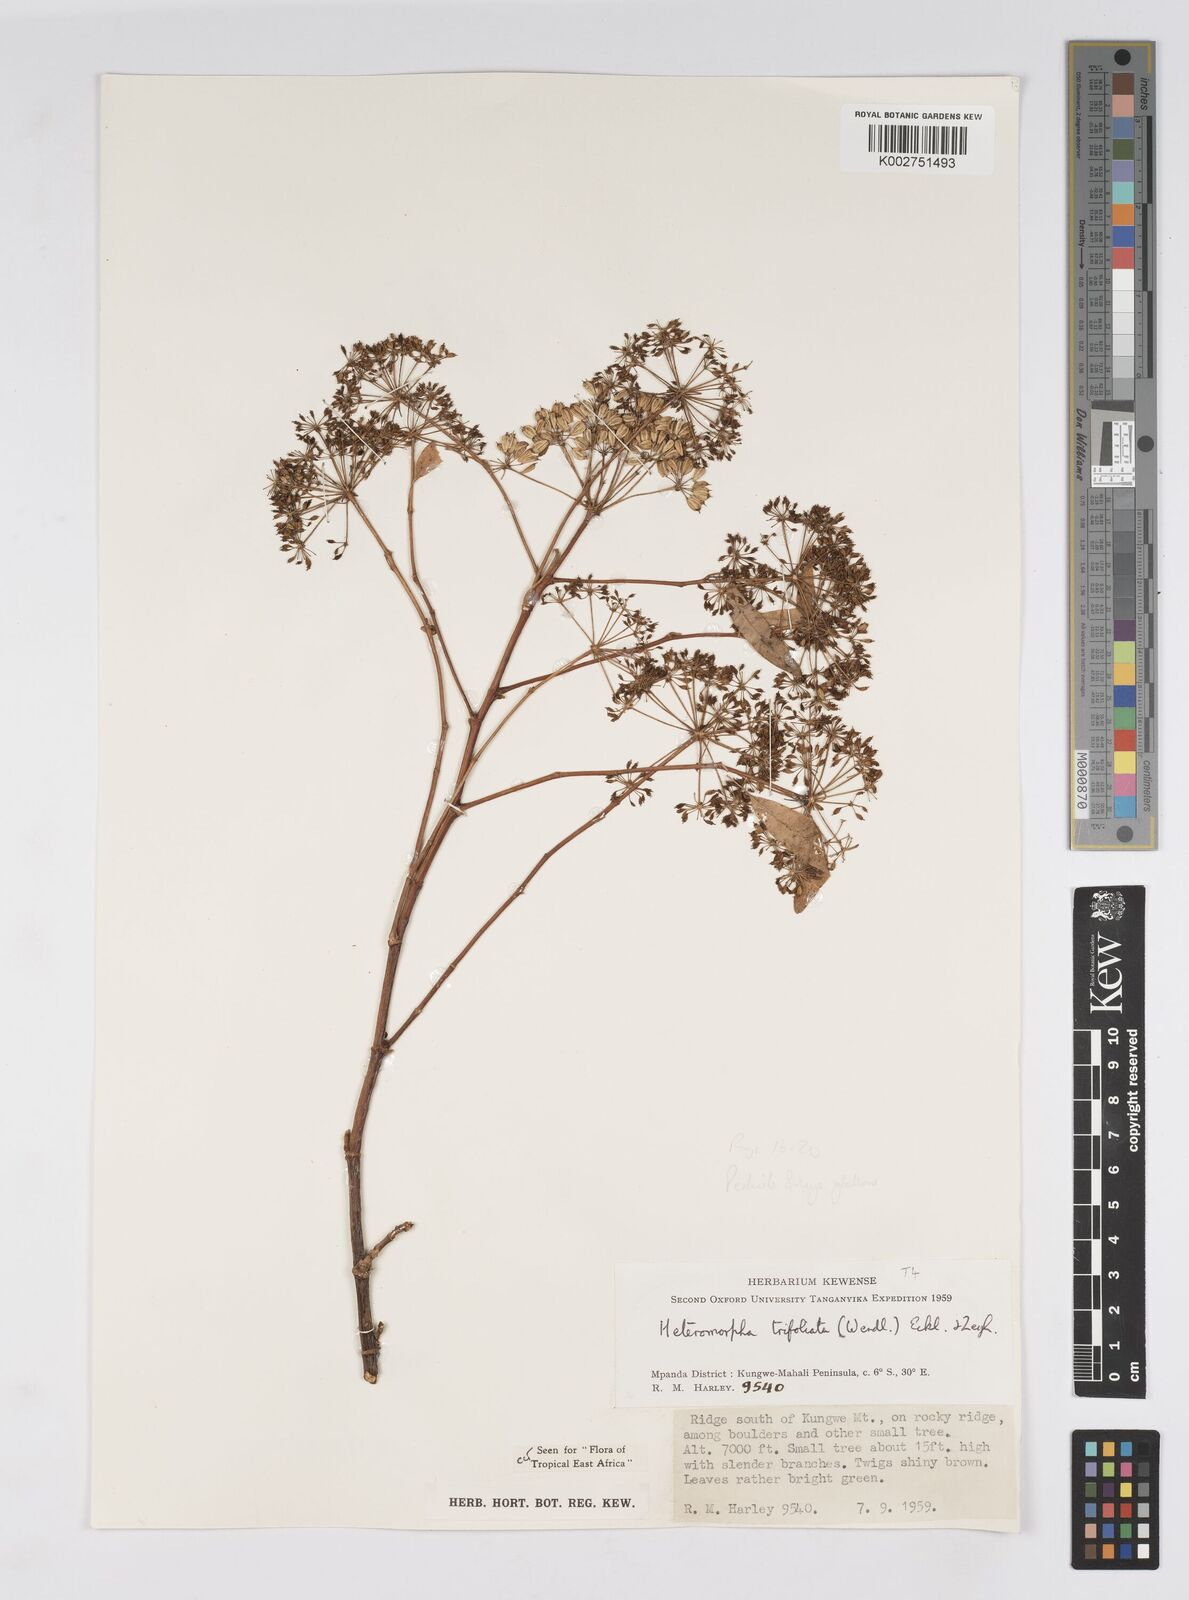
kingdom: Plantae
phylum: Tracheophyta
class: Magnoliopsida
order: Apiales
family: Apiaceae
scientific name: Apiaceae
